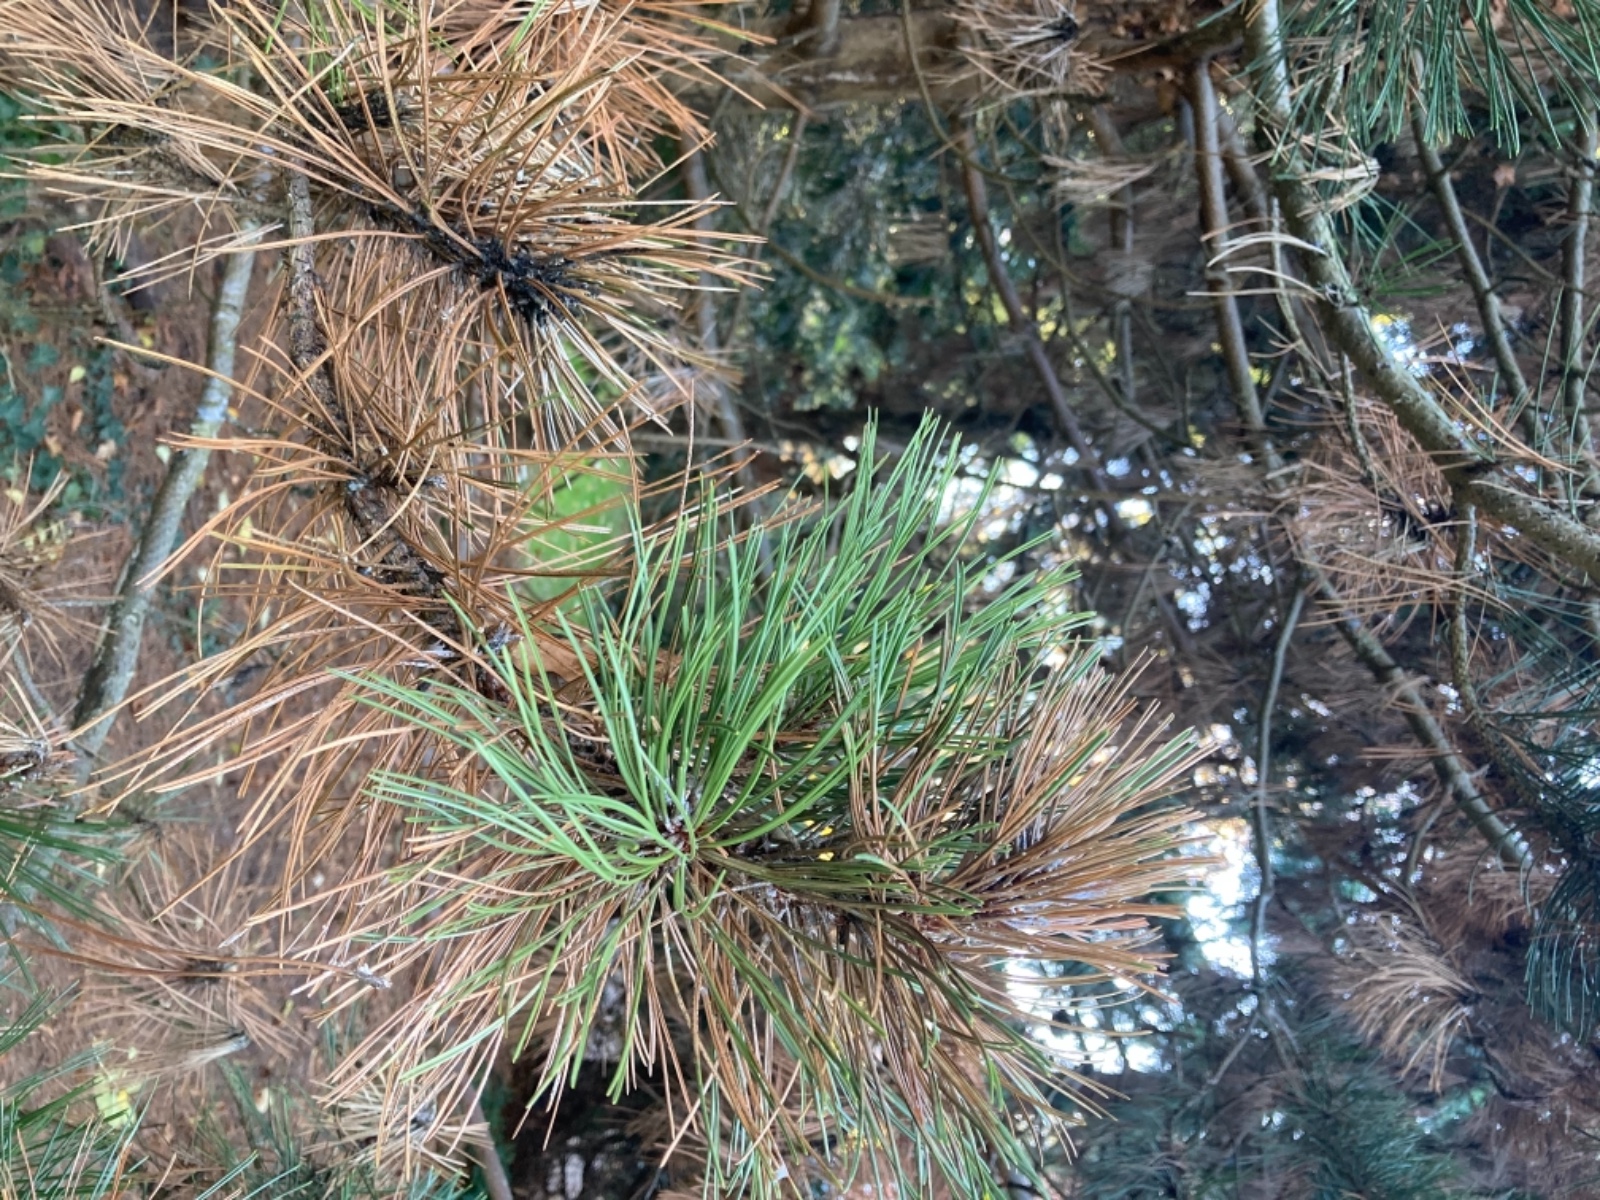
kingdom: Fungi
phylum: Ascomycota
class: Leotiomycetes
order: Rhytismatales
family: Rhytismataceae
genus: Meloderma
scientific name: Meloderma desmazieri
